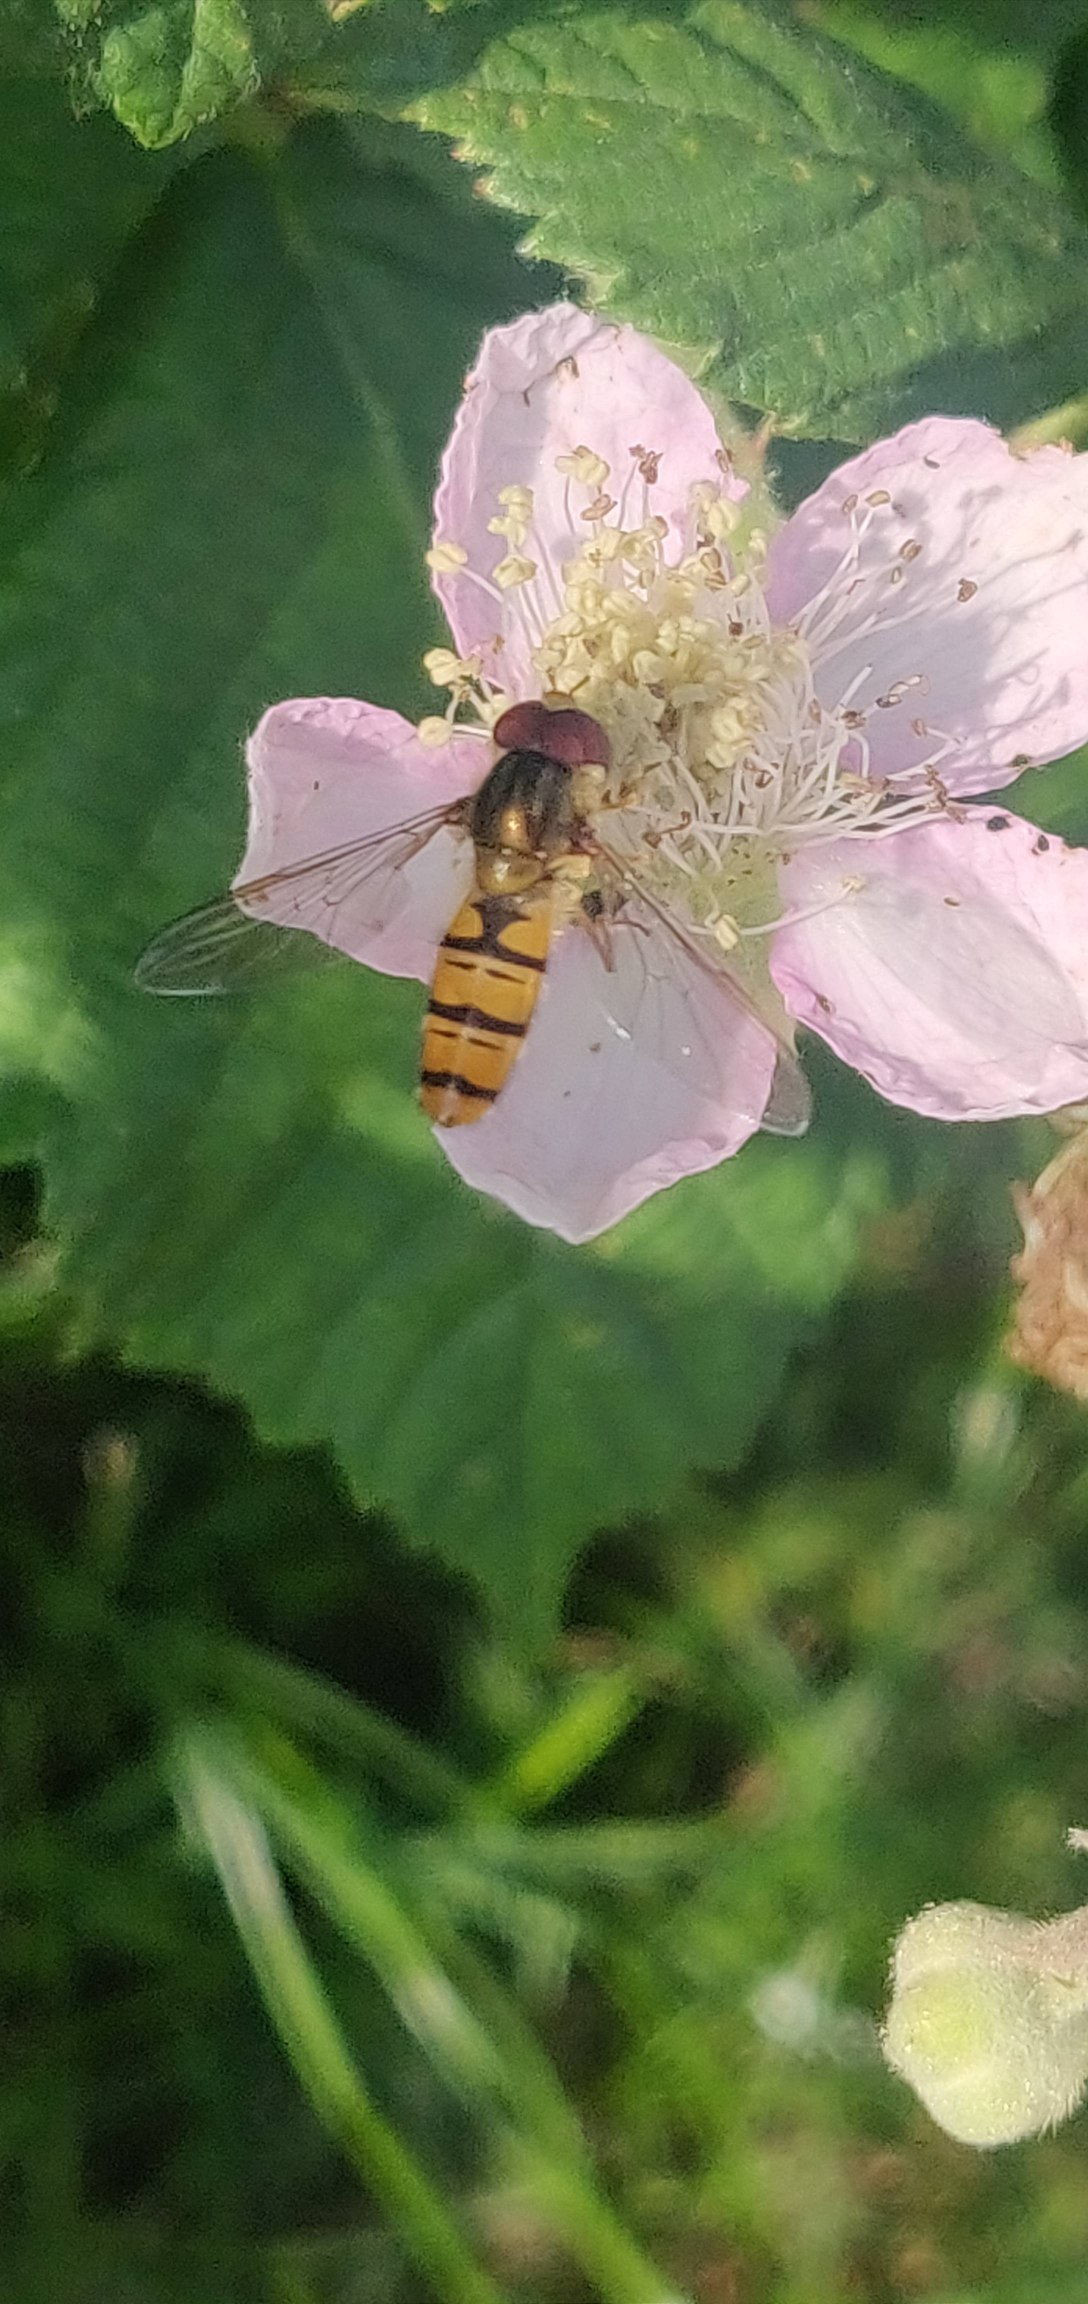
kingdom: Animalia
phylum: Arthropoda
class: Insecta
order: Diptera
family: Syrphidae
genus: Episyrphus
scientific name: Episyrphus balteatus
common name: Dobbeltbåndet svirreflue
